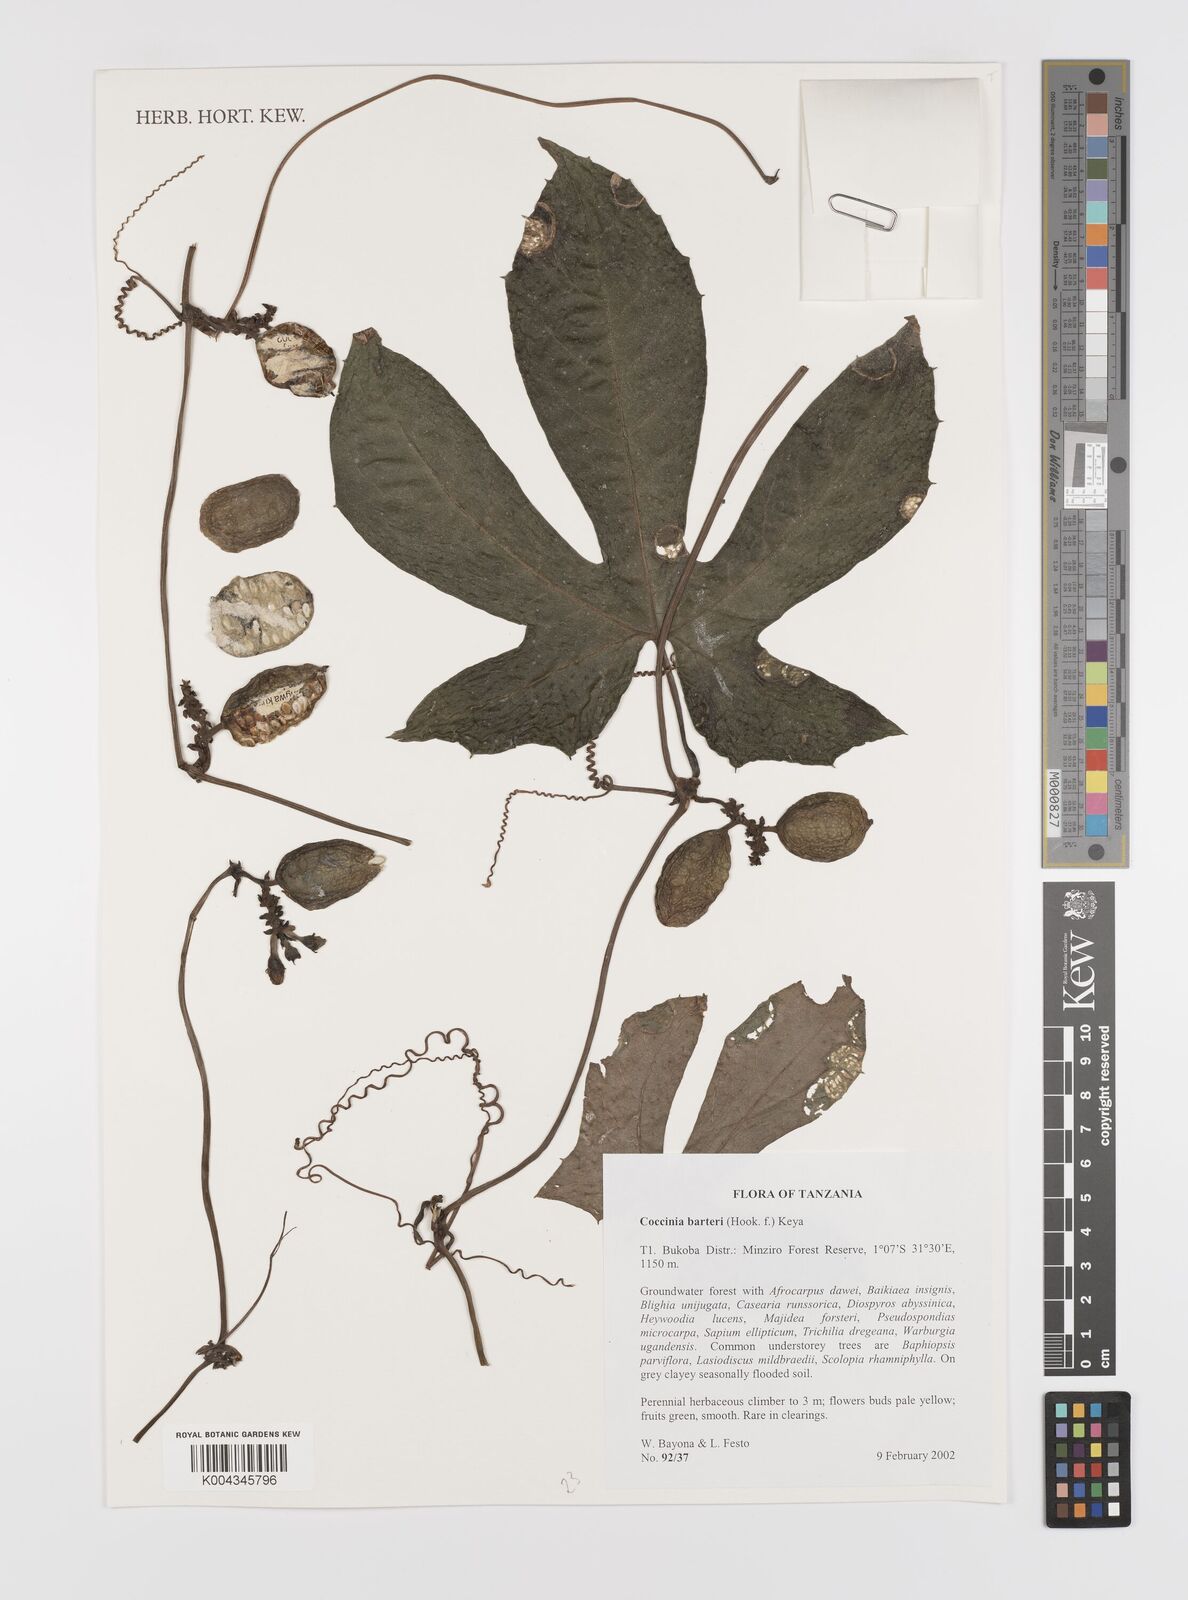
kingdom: Plantae
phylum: Tracheophyta
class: Magnoliopsida
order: Cucurbitales
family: Cucurbitaceae
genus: Coccinia
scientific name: Coccinia barteri
